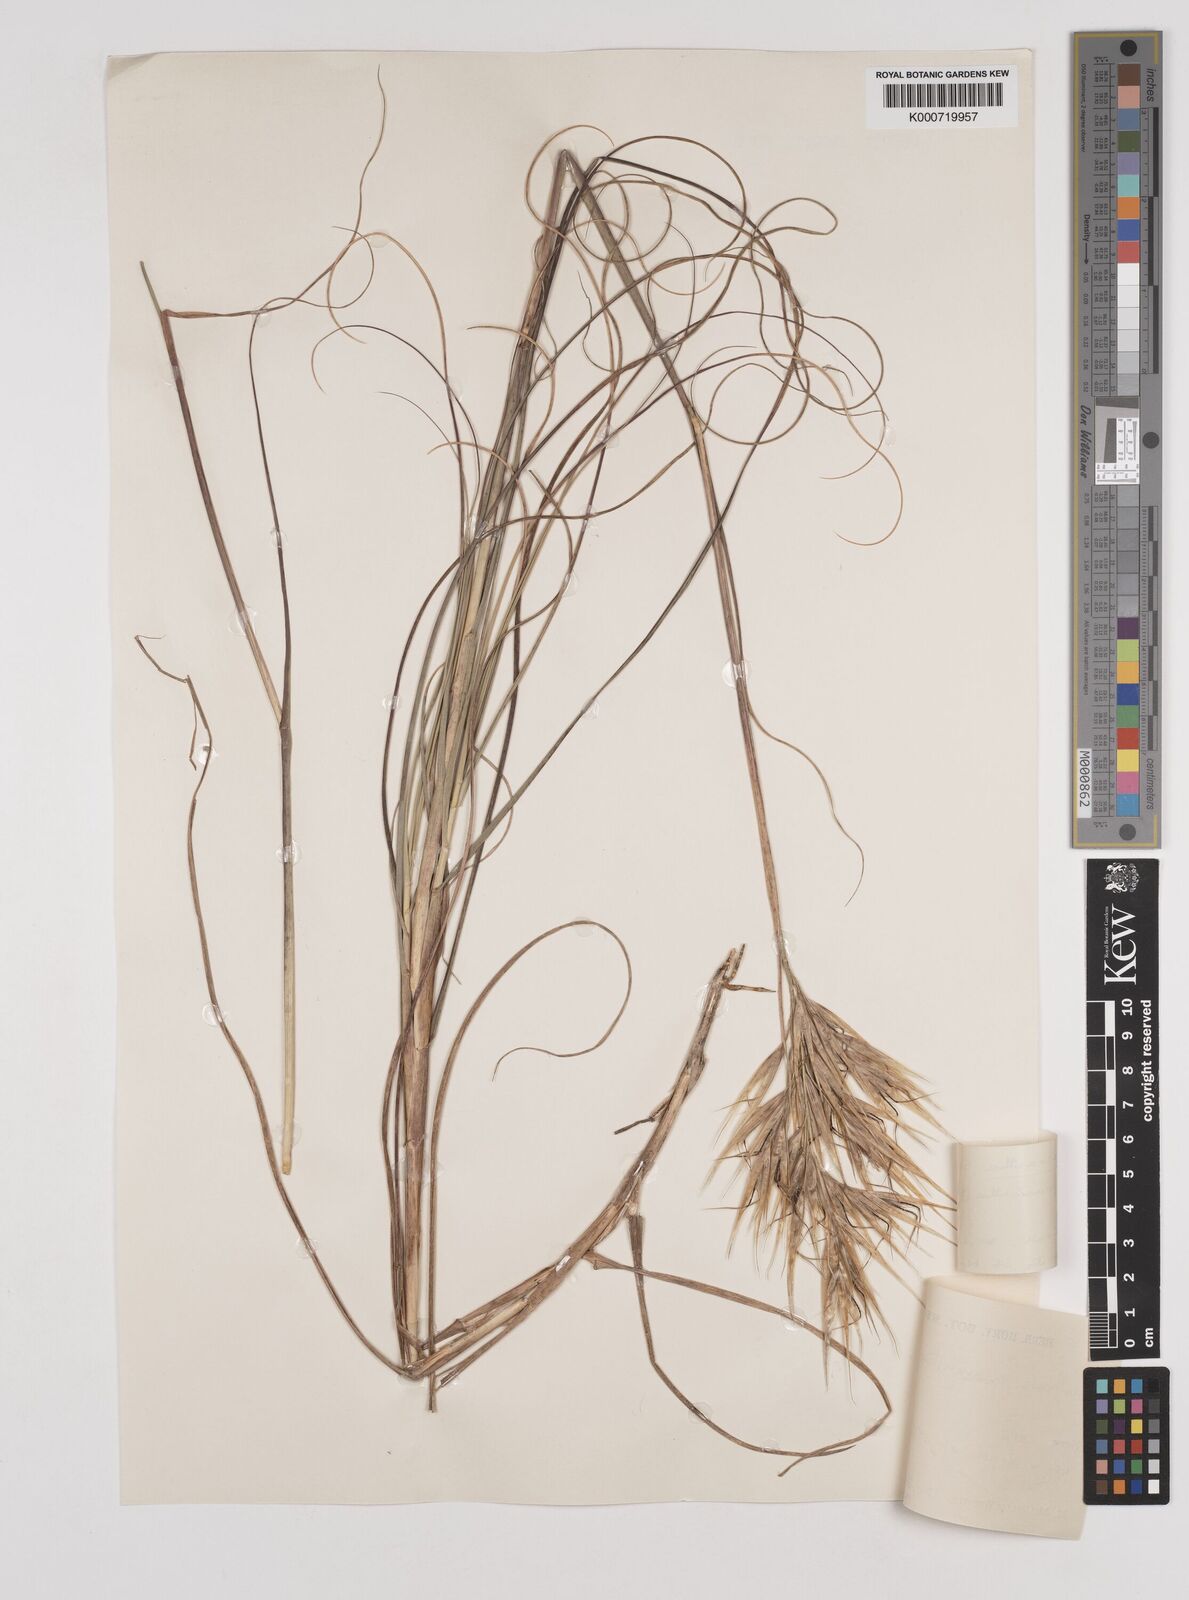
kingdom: Plantae
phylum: Tracheophyta
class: Liliopsida
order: Poales
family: Poaceae
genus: Pseudopentameris
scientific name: Pseudopentameris macrantha
